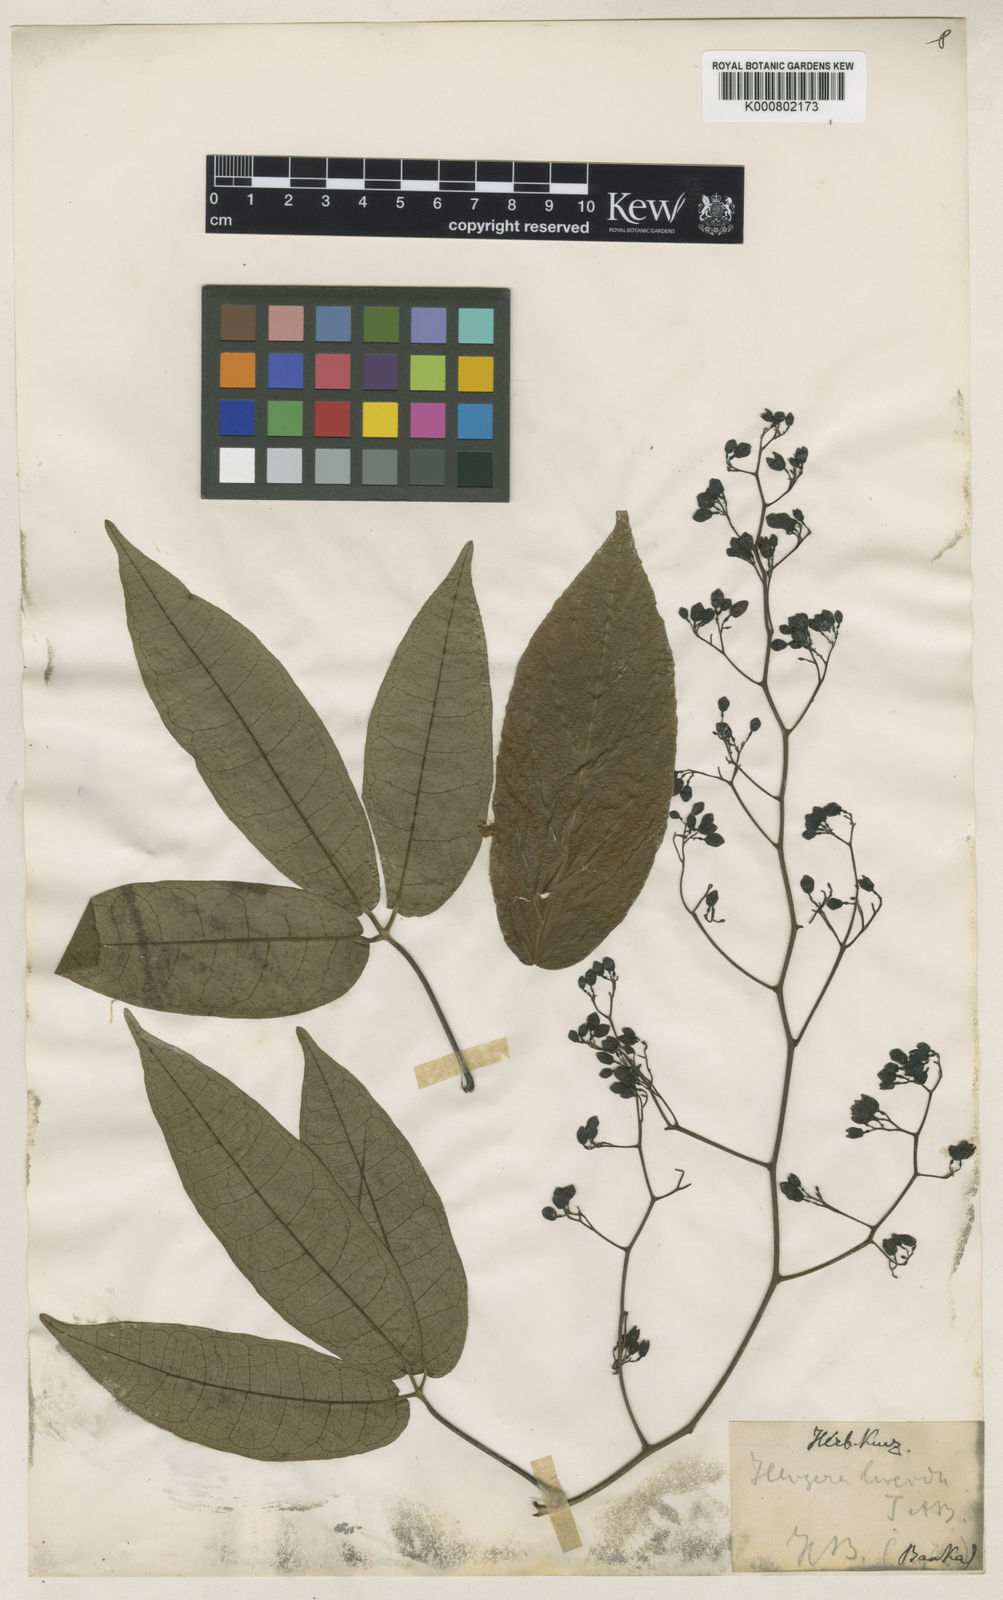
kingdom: Plantae
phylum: Tracheophyta
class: Magnoliopsida
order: Laurales
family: Hernandiaceae
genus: Illigera
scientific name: Illigera pulchra
